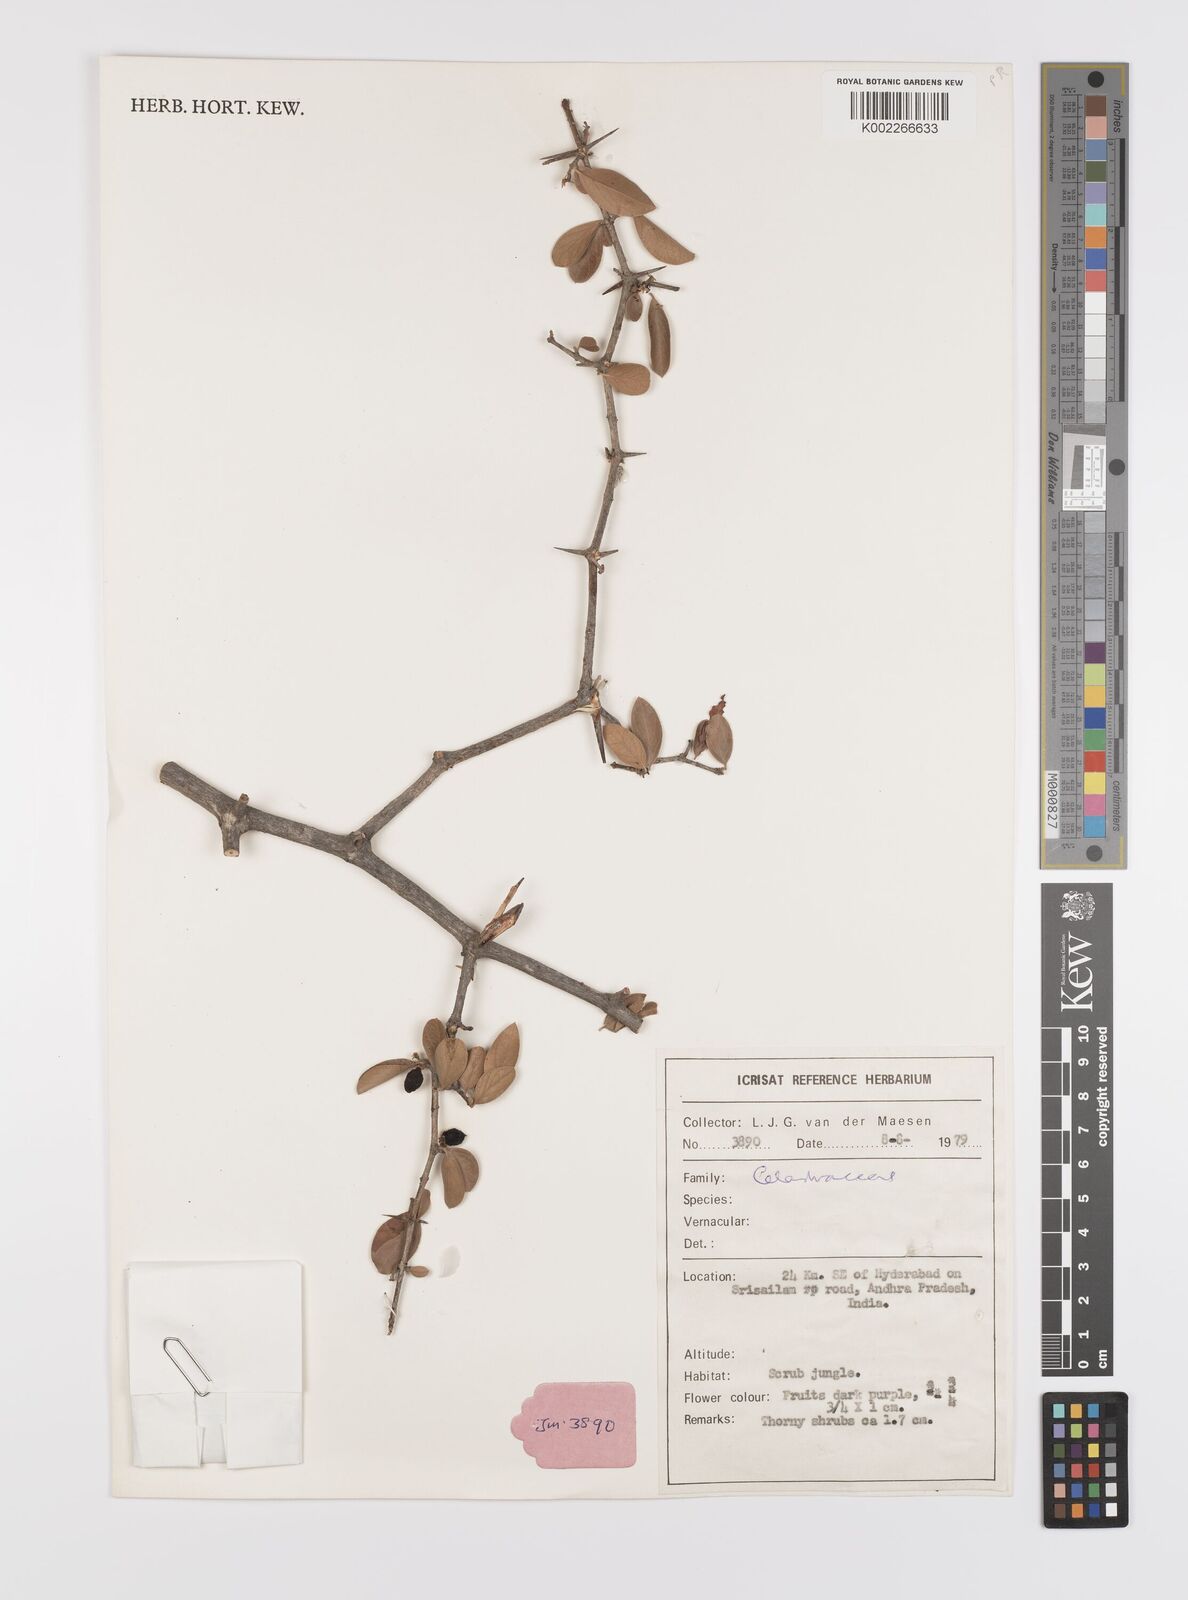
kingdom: Plantae
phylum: Tracheophyta
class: Magnoliopsida
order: Celastrales
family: Celastraceae
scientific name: Celastraceae
